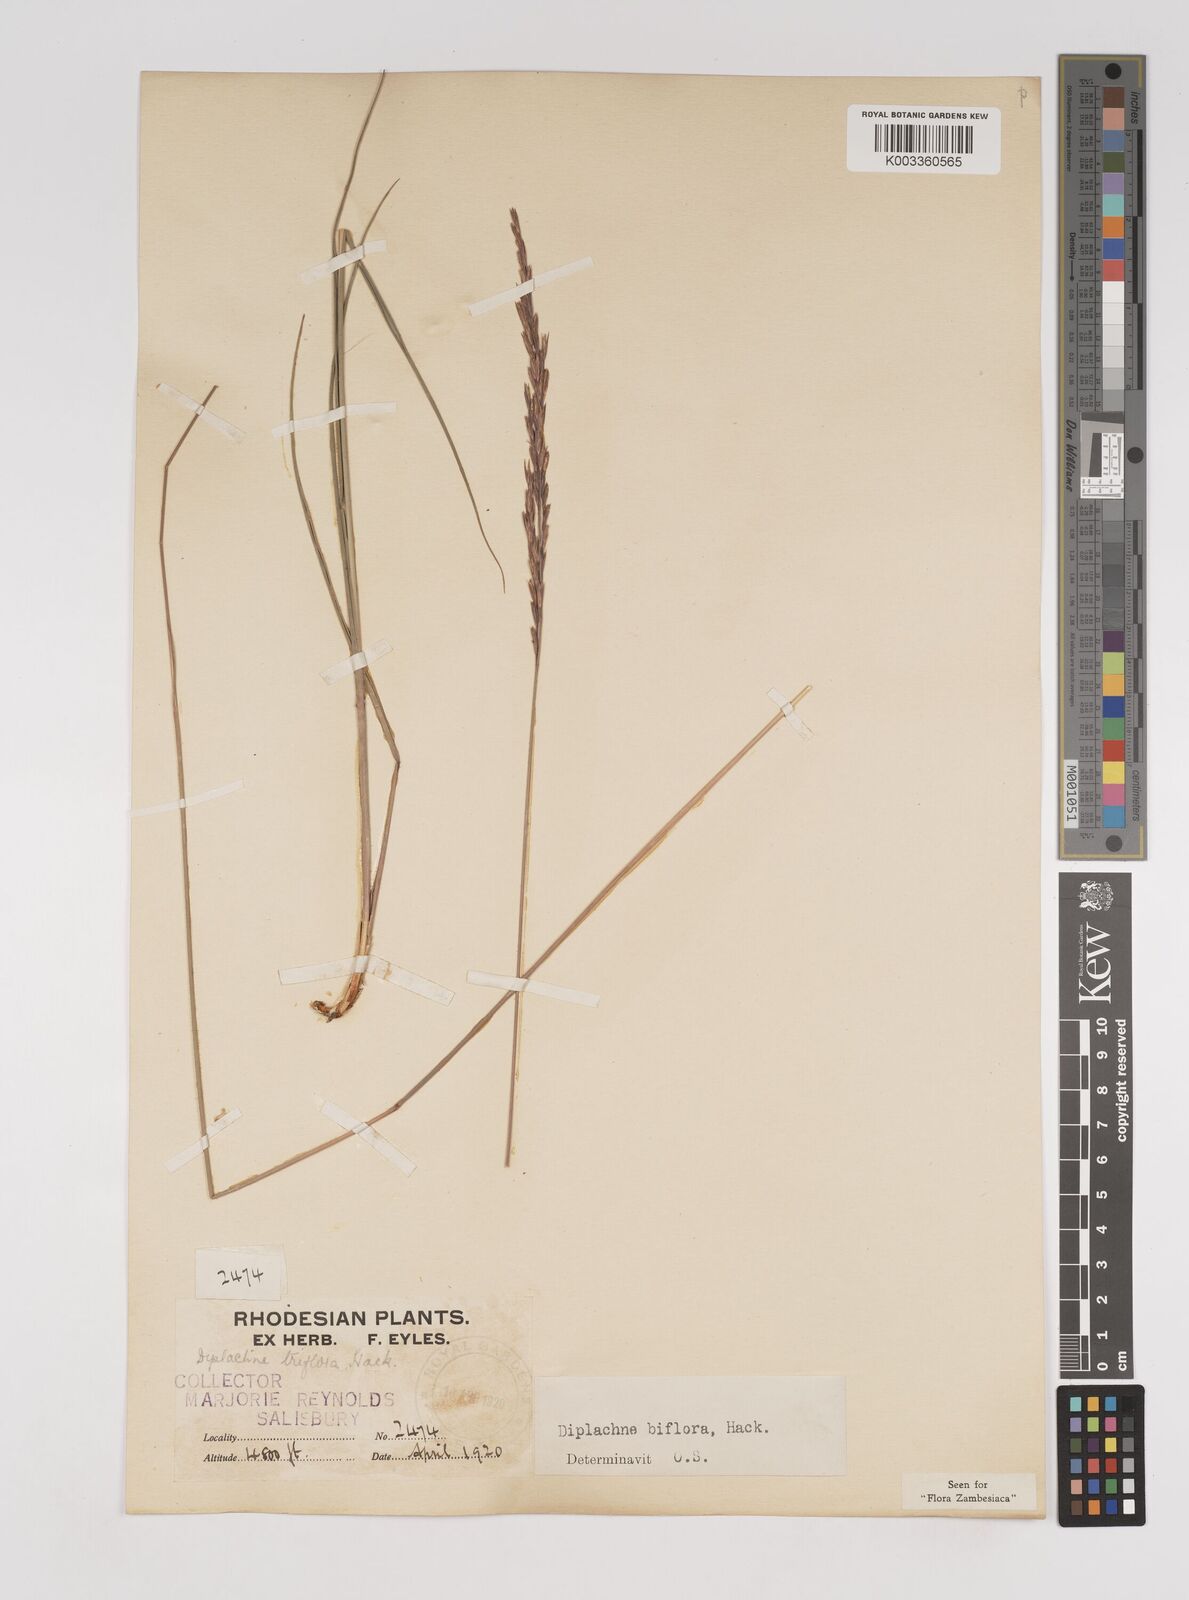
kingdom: Plantae
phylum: Tracheophyta
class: Liliopsida
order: Poales
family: Poaceae
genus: Bewsia
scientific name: Bewsia biflora
